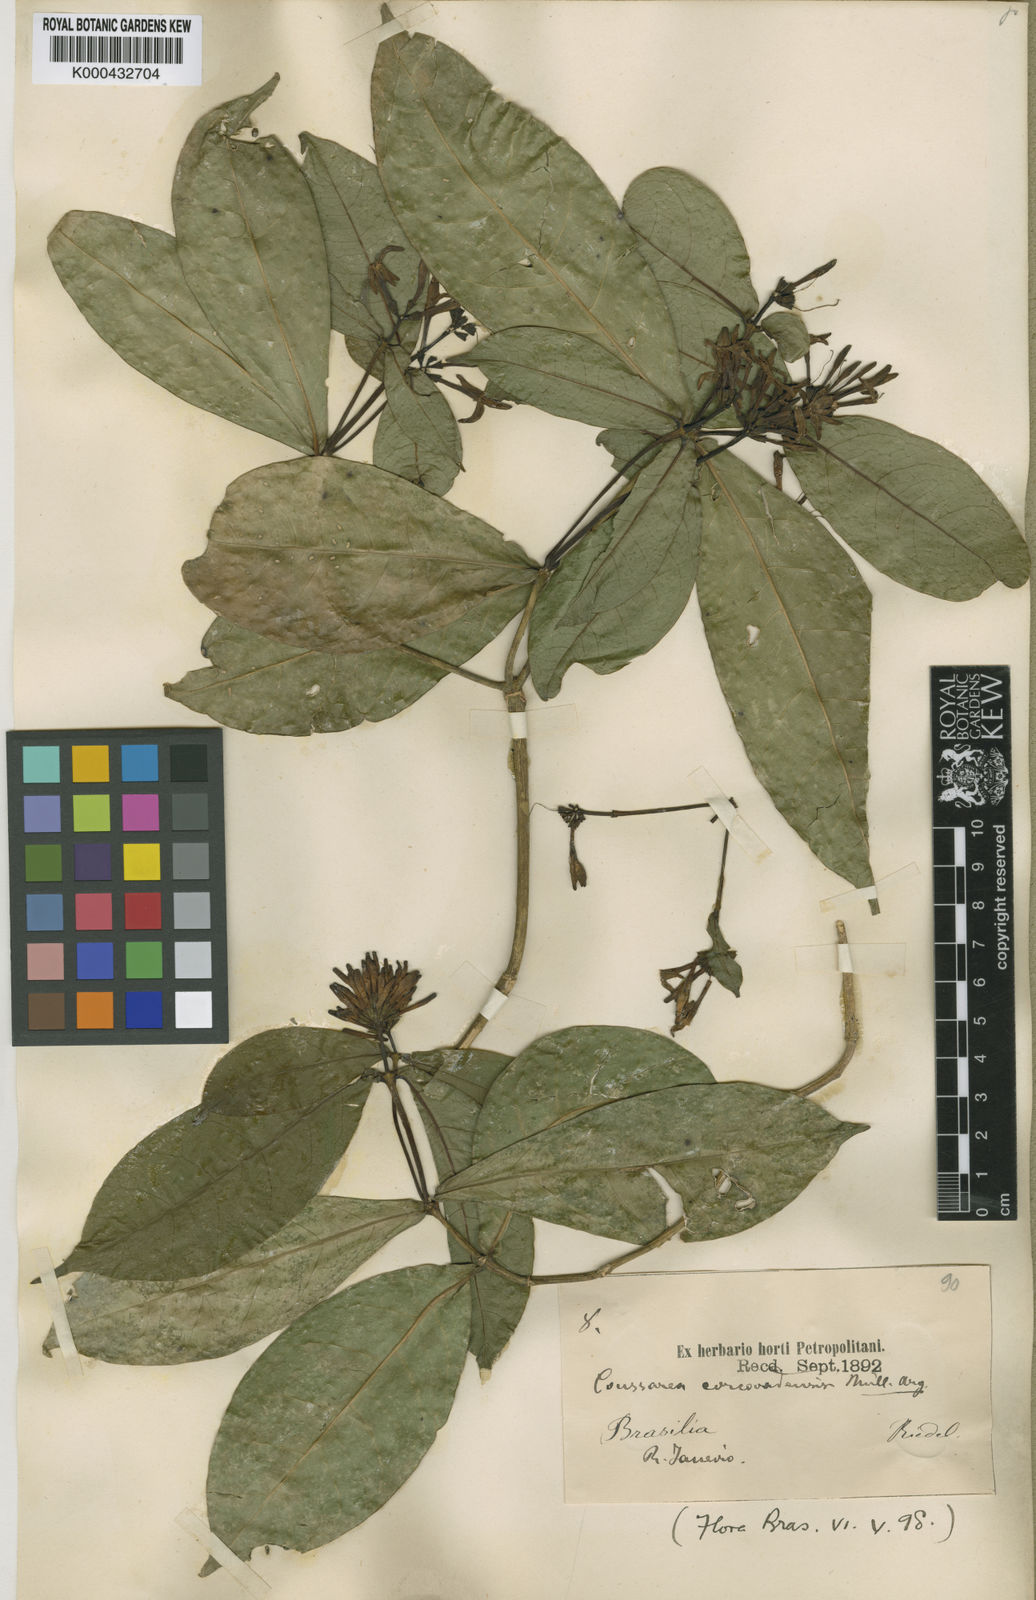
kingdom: Plantae
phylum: Tracheophyta
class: Magnoliopsida
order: Gentianales
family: Rubiaceae
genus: Coussarea
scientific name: Coussarea
